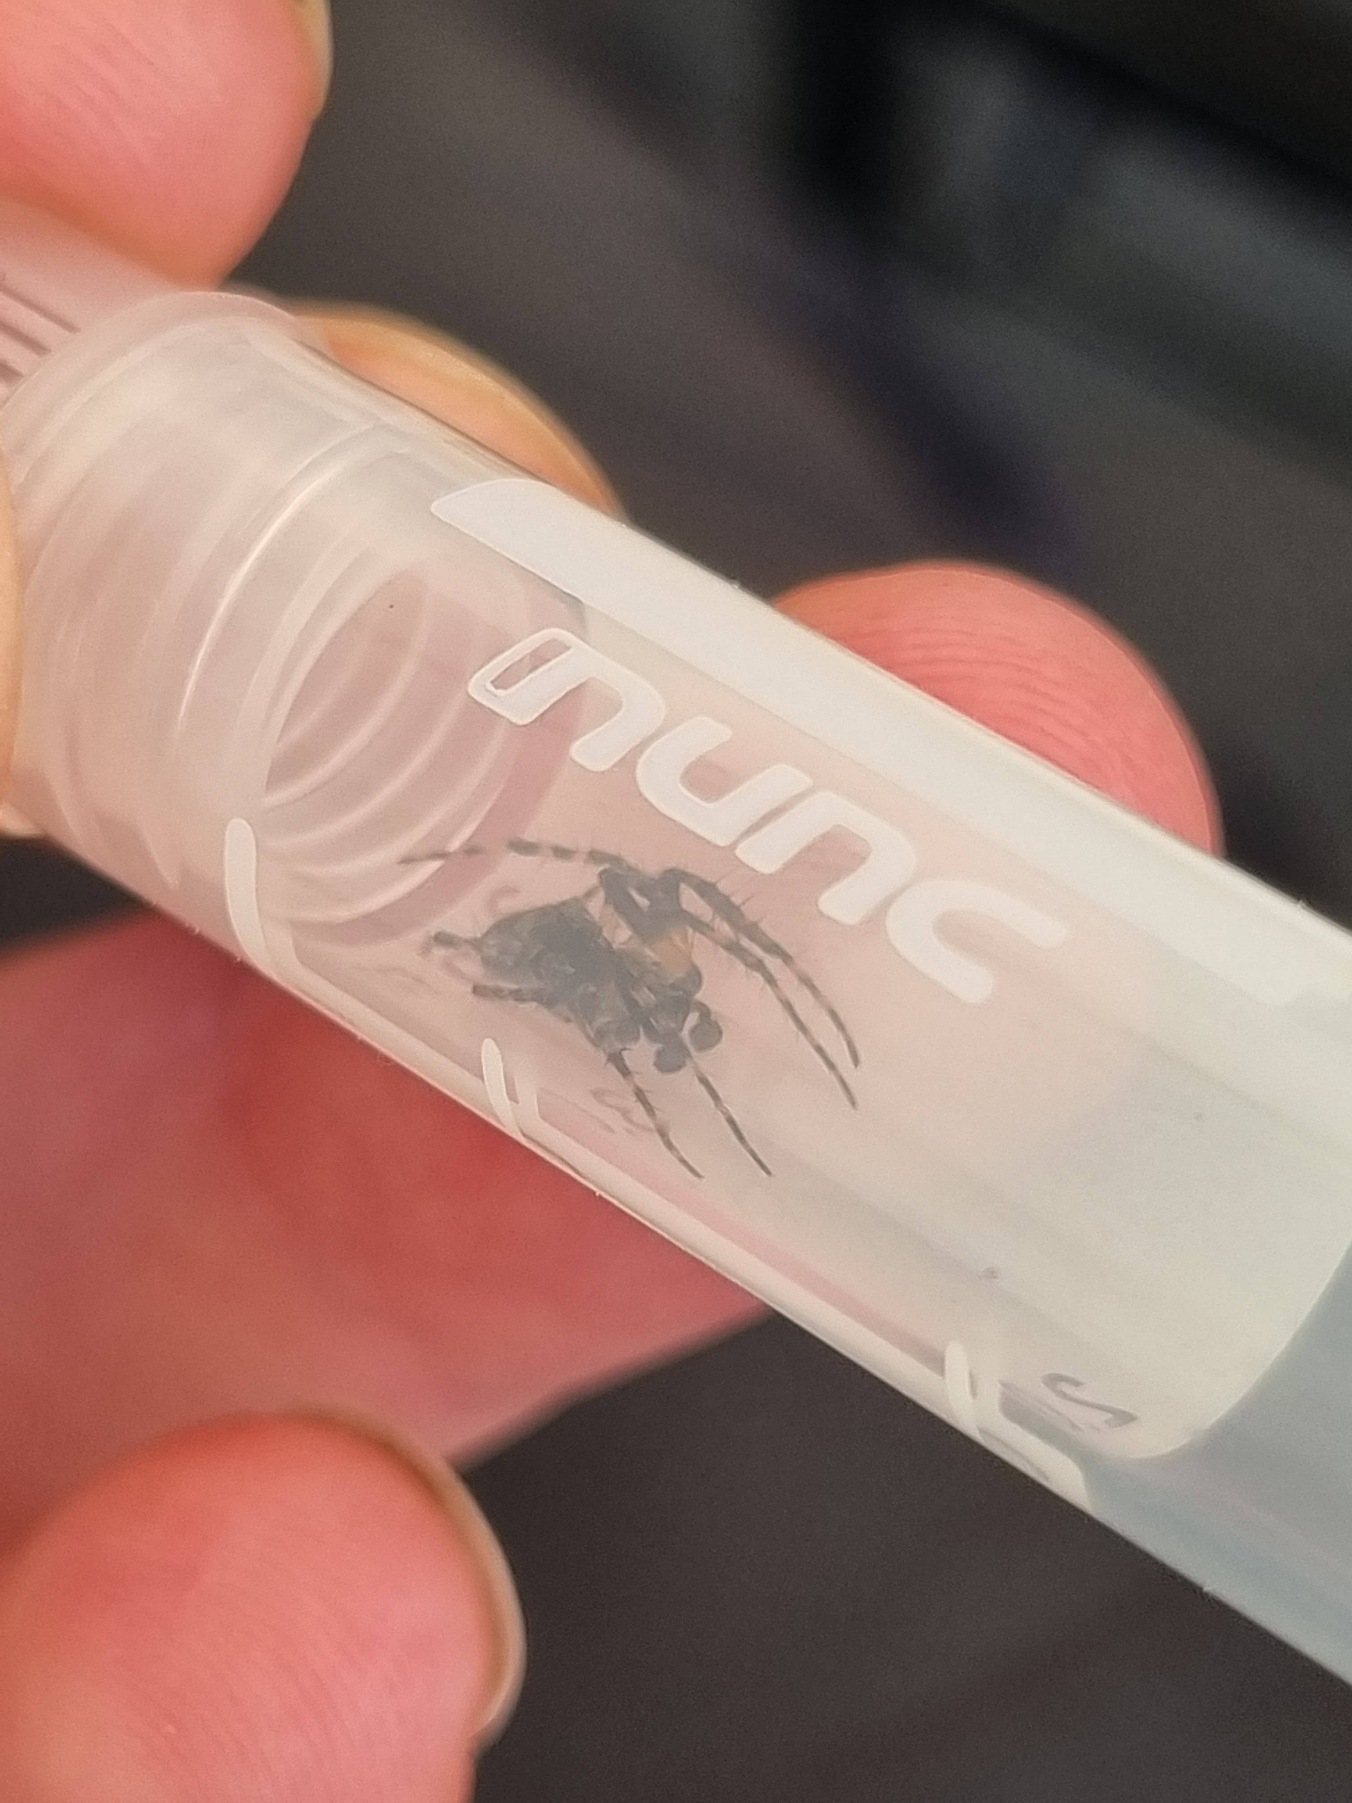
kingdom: Animalia
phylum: Arthropoda
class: Arachnida
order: Araneae
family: Araneidae
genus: Gibbaranea
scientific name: Gibbaranea gibbosa
